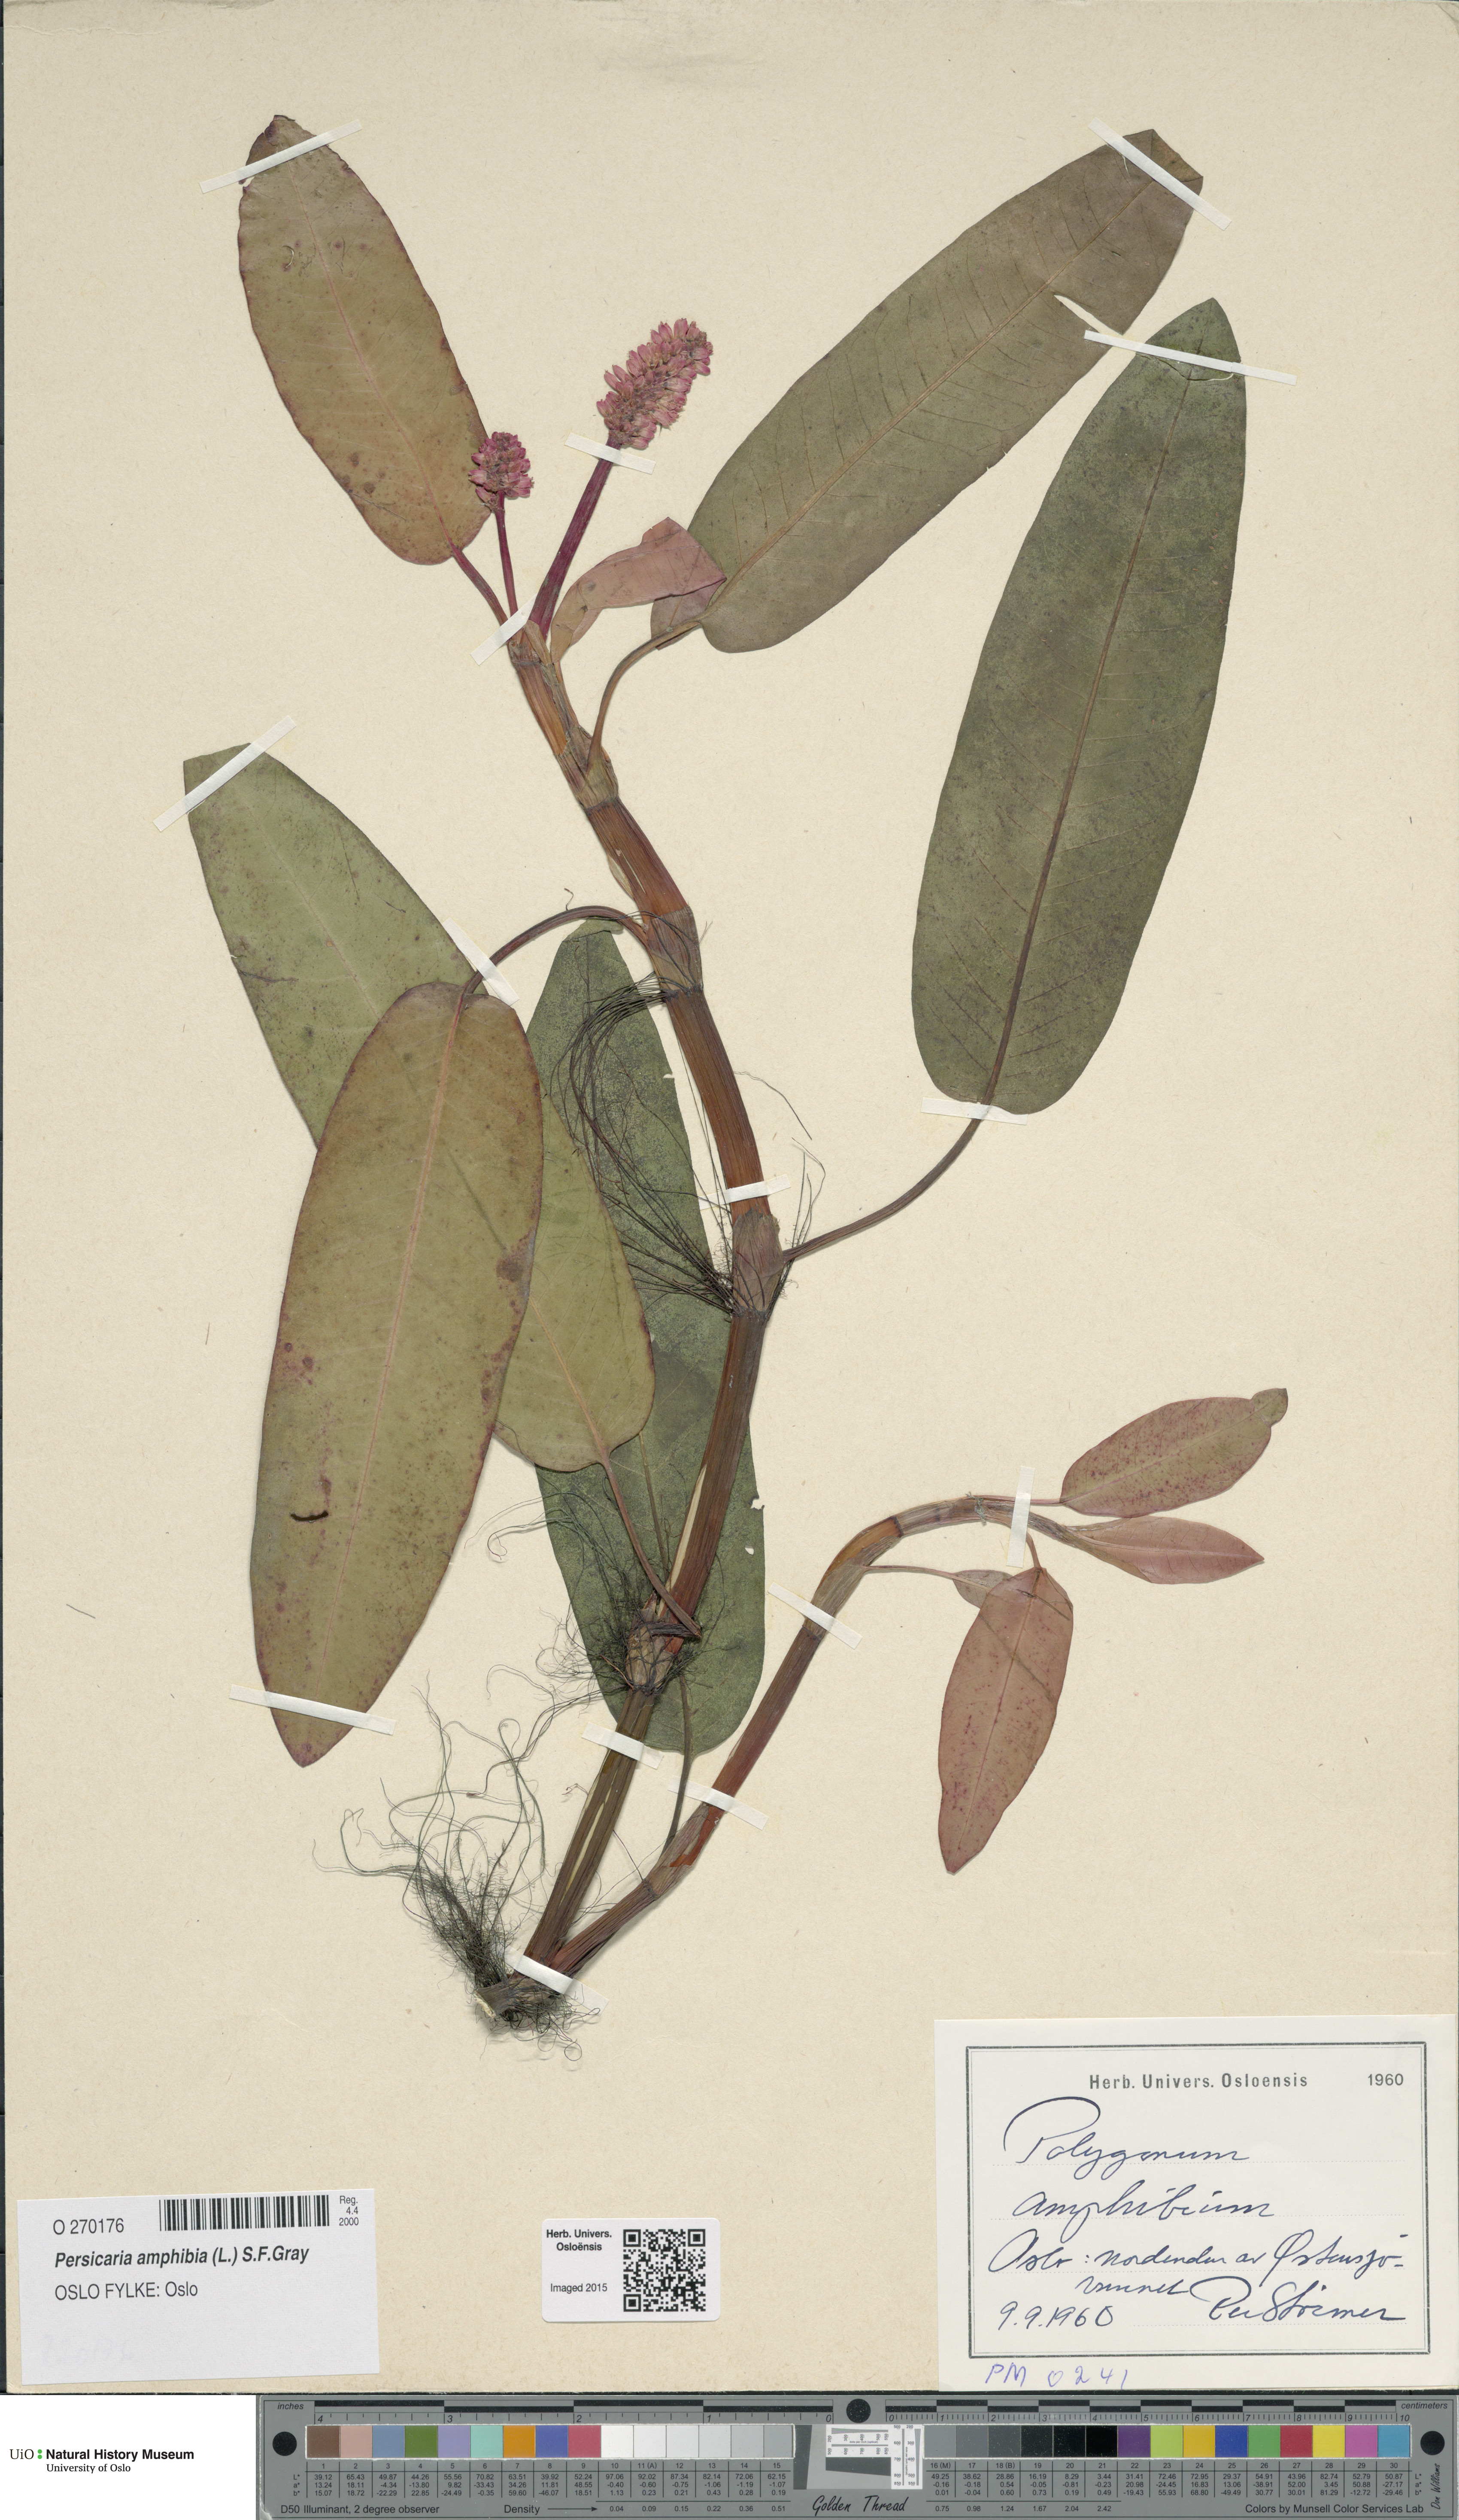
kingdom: Plantae
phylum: Tracheophyta
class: Magnoliopsida
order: Caryophyllales
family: Polygonaceae
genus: Persicaria
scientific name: Persicaria amphibia
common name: Amphibious bistort
